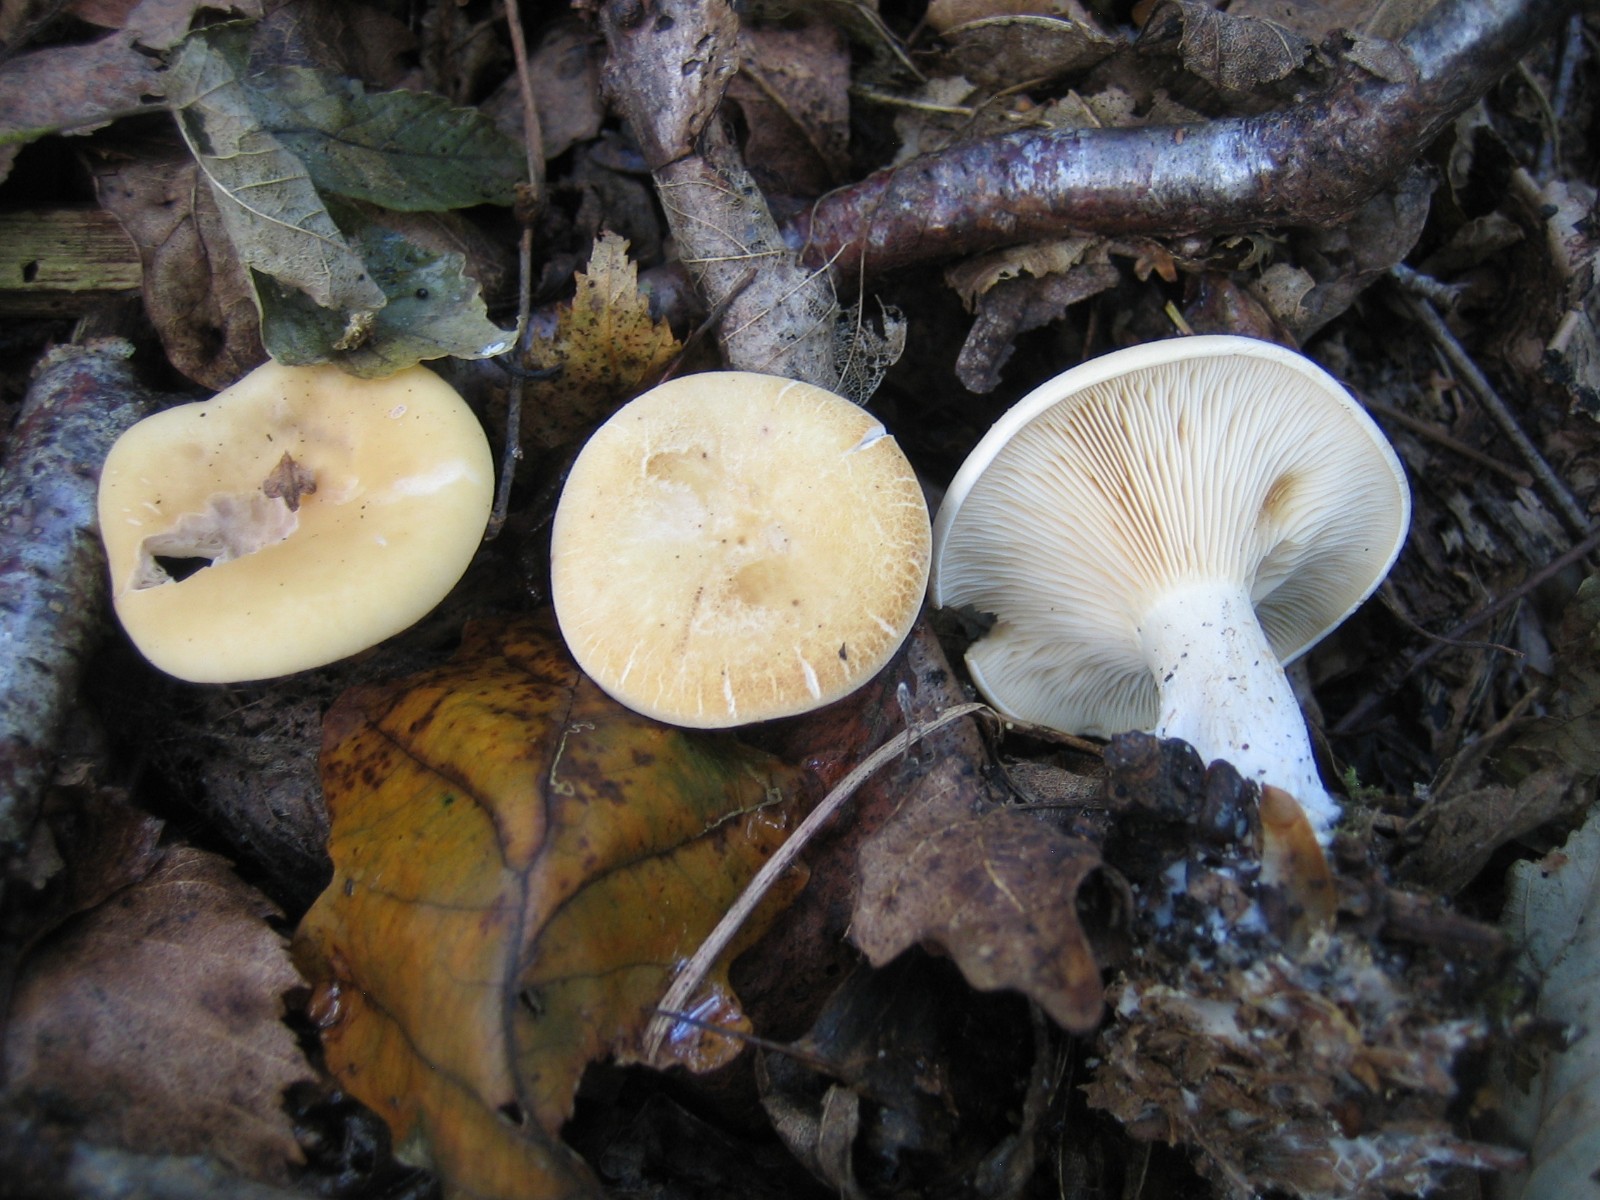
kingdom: Fungi
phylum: Basidiomycota
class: Agaricomycetes
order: Agaricales
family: Tricholomataceae
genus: Paralepista
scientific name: Paralepista gilva
